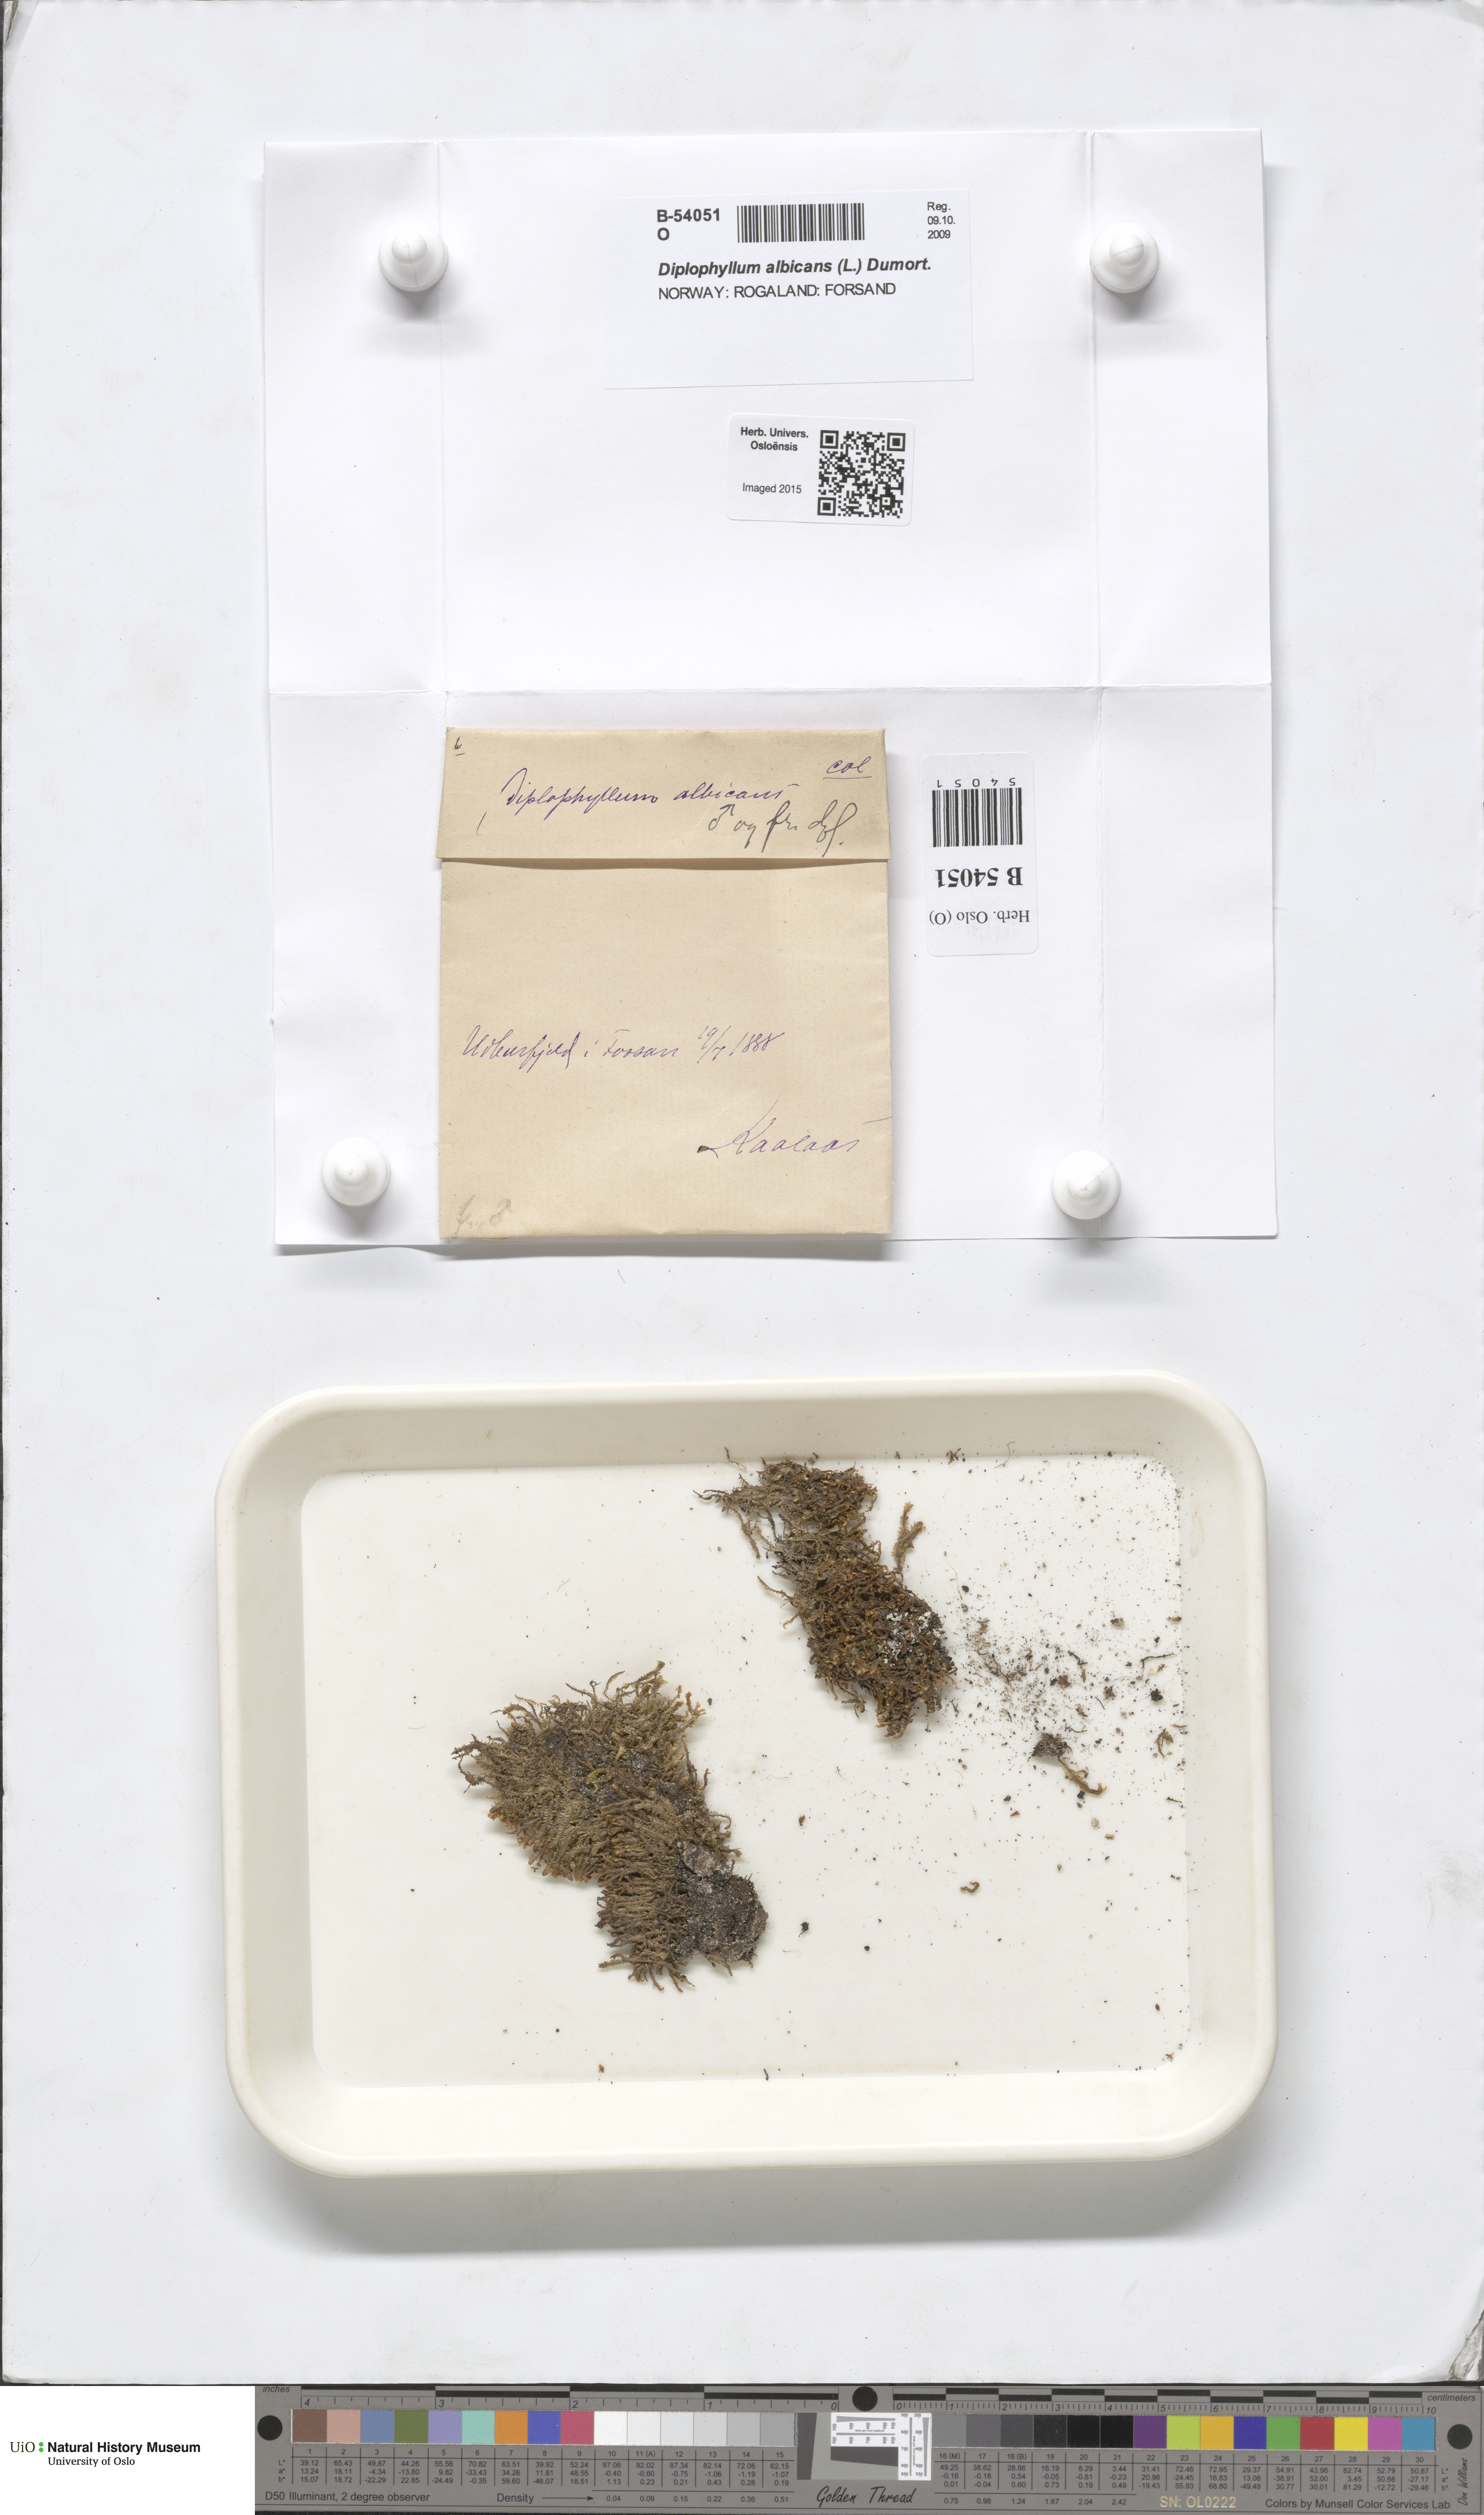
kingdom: Plantae
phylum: Marchantiophyta
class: Jungermanniopsida
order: Jungermanniales
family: Scapaniaceae
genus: Diplophyllum
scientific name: Diplophyllum albicans
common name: White earwort
